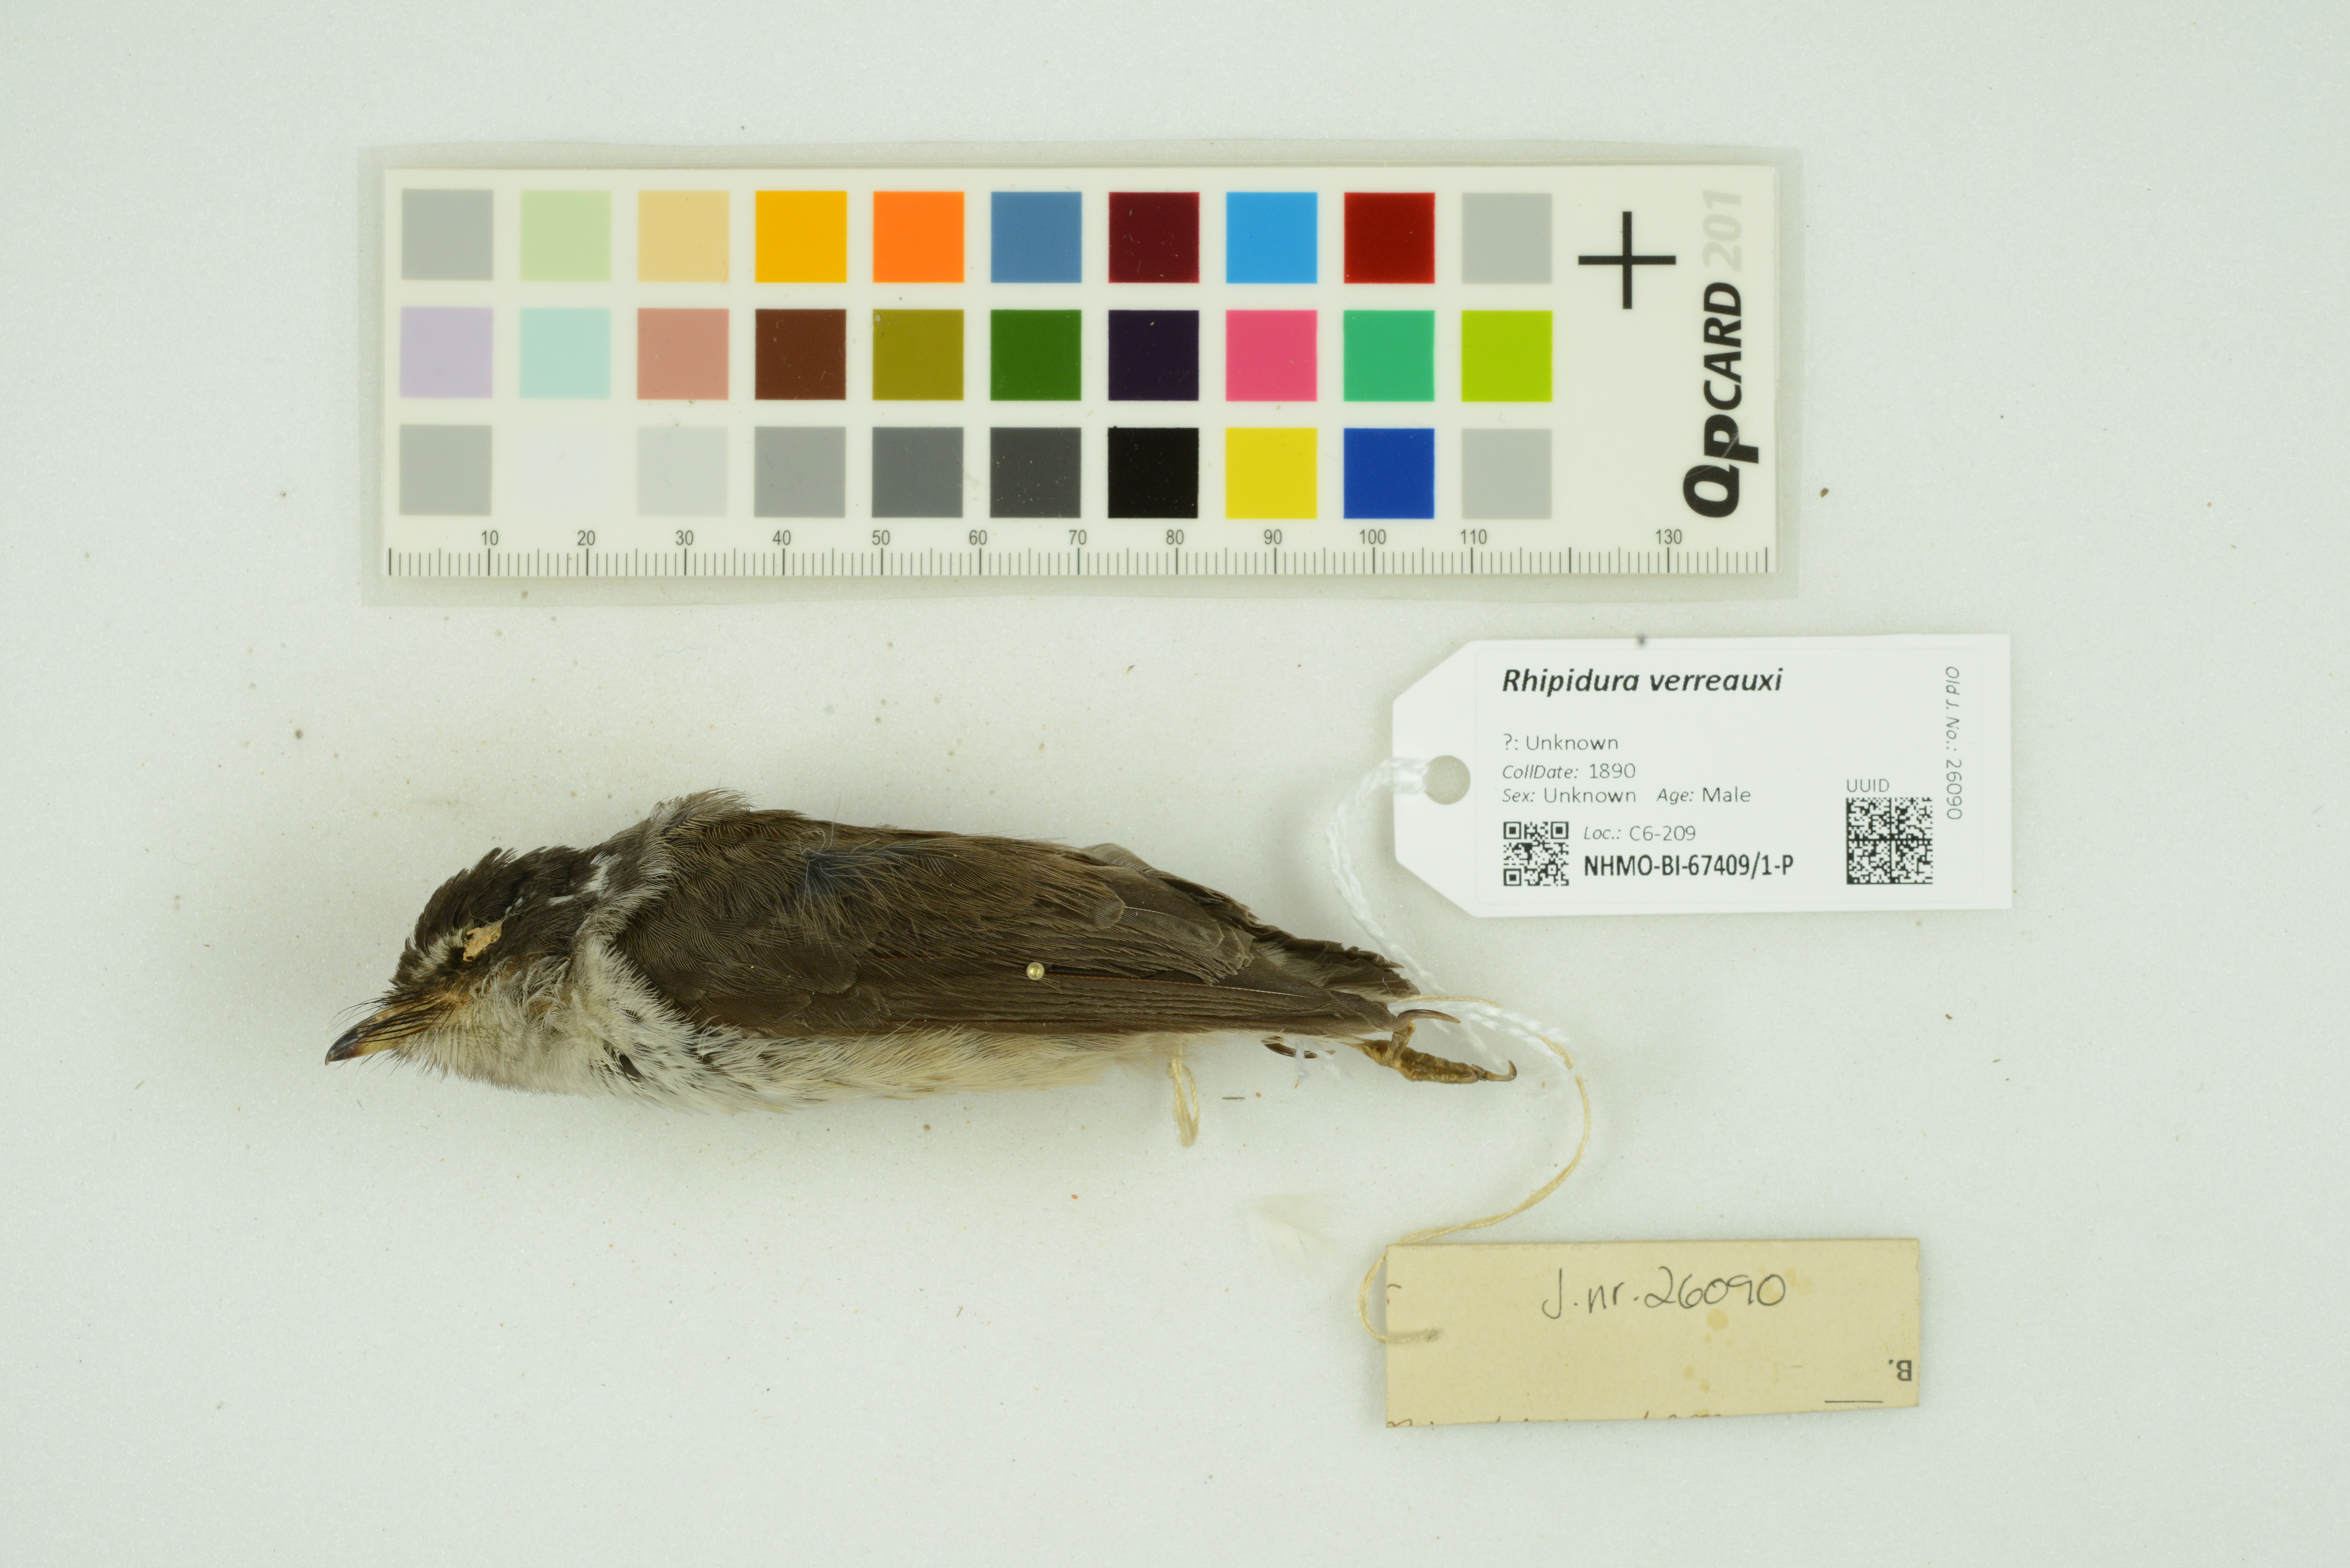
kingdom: Animalia
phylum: Chordata
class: Aves
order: Passeriformes
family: Rhipiduridae
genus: Rhipidura
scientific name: Rhipidura verreauxi
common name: Streaked fantail
